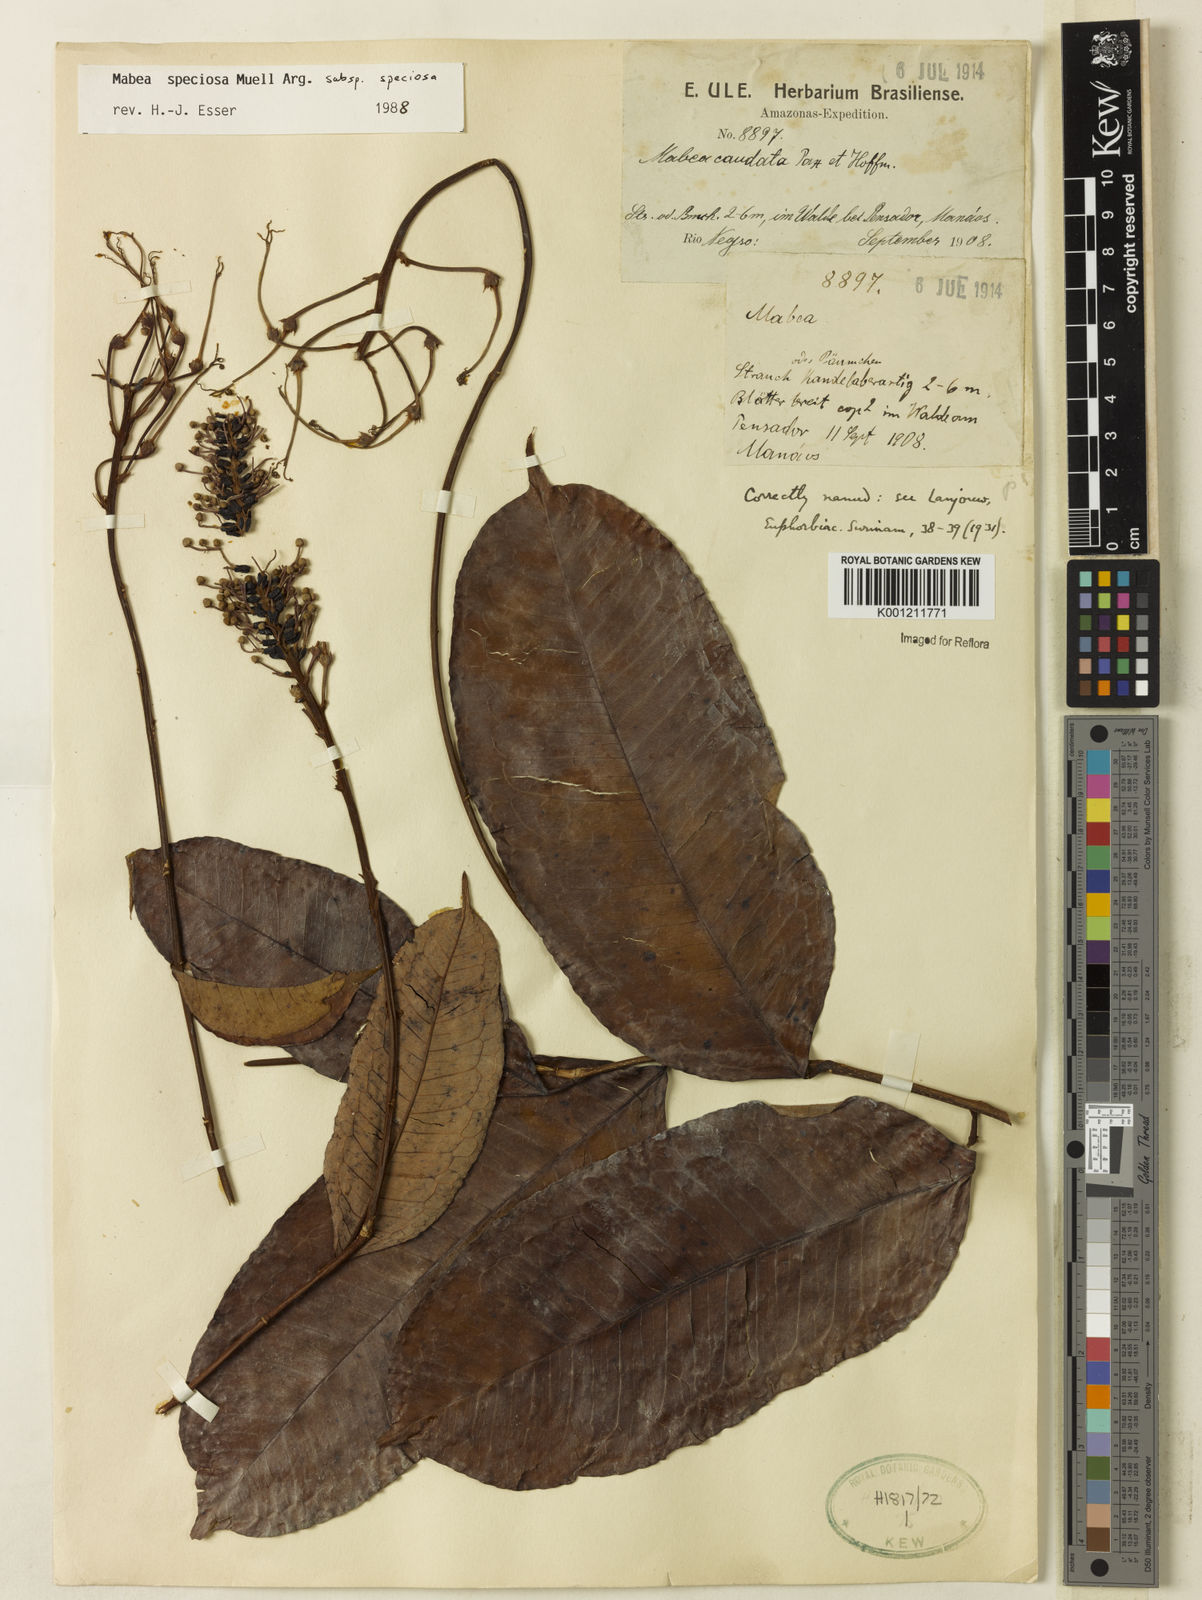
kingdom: Plantae
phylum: Tracheophyta
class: Magnoliopsida
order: Malpighiales
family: Euphorbiaceae
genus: Mabea
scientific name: Mabea
